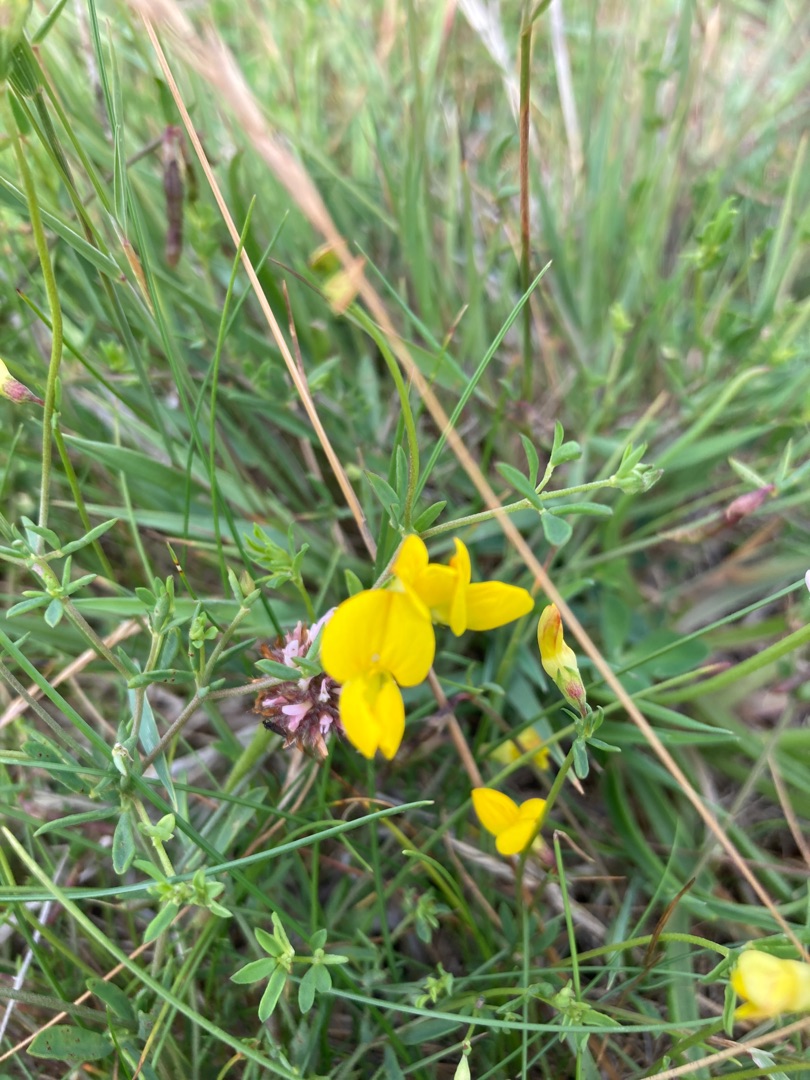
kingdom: Plantae
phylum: Tracheophyta
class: Magnoliopsida
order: Fabales
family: Fabaceae
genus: Lotus
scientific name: Lotus tenuis
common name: Smalbladet kællingetand
